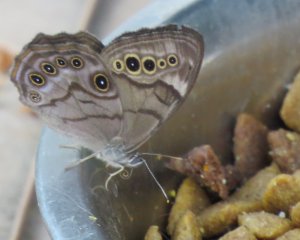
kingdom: Animalia
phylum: Arthropoda
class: Insecta
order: Lepidoptera
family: Nymphalidae
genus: Lethe
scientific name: Lethe anthedon
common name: Northern Pearly-Eye
